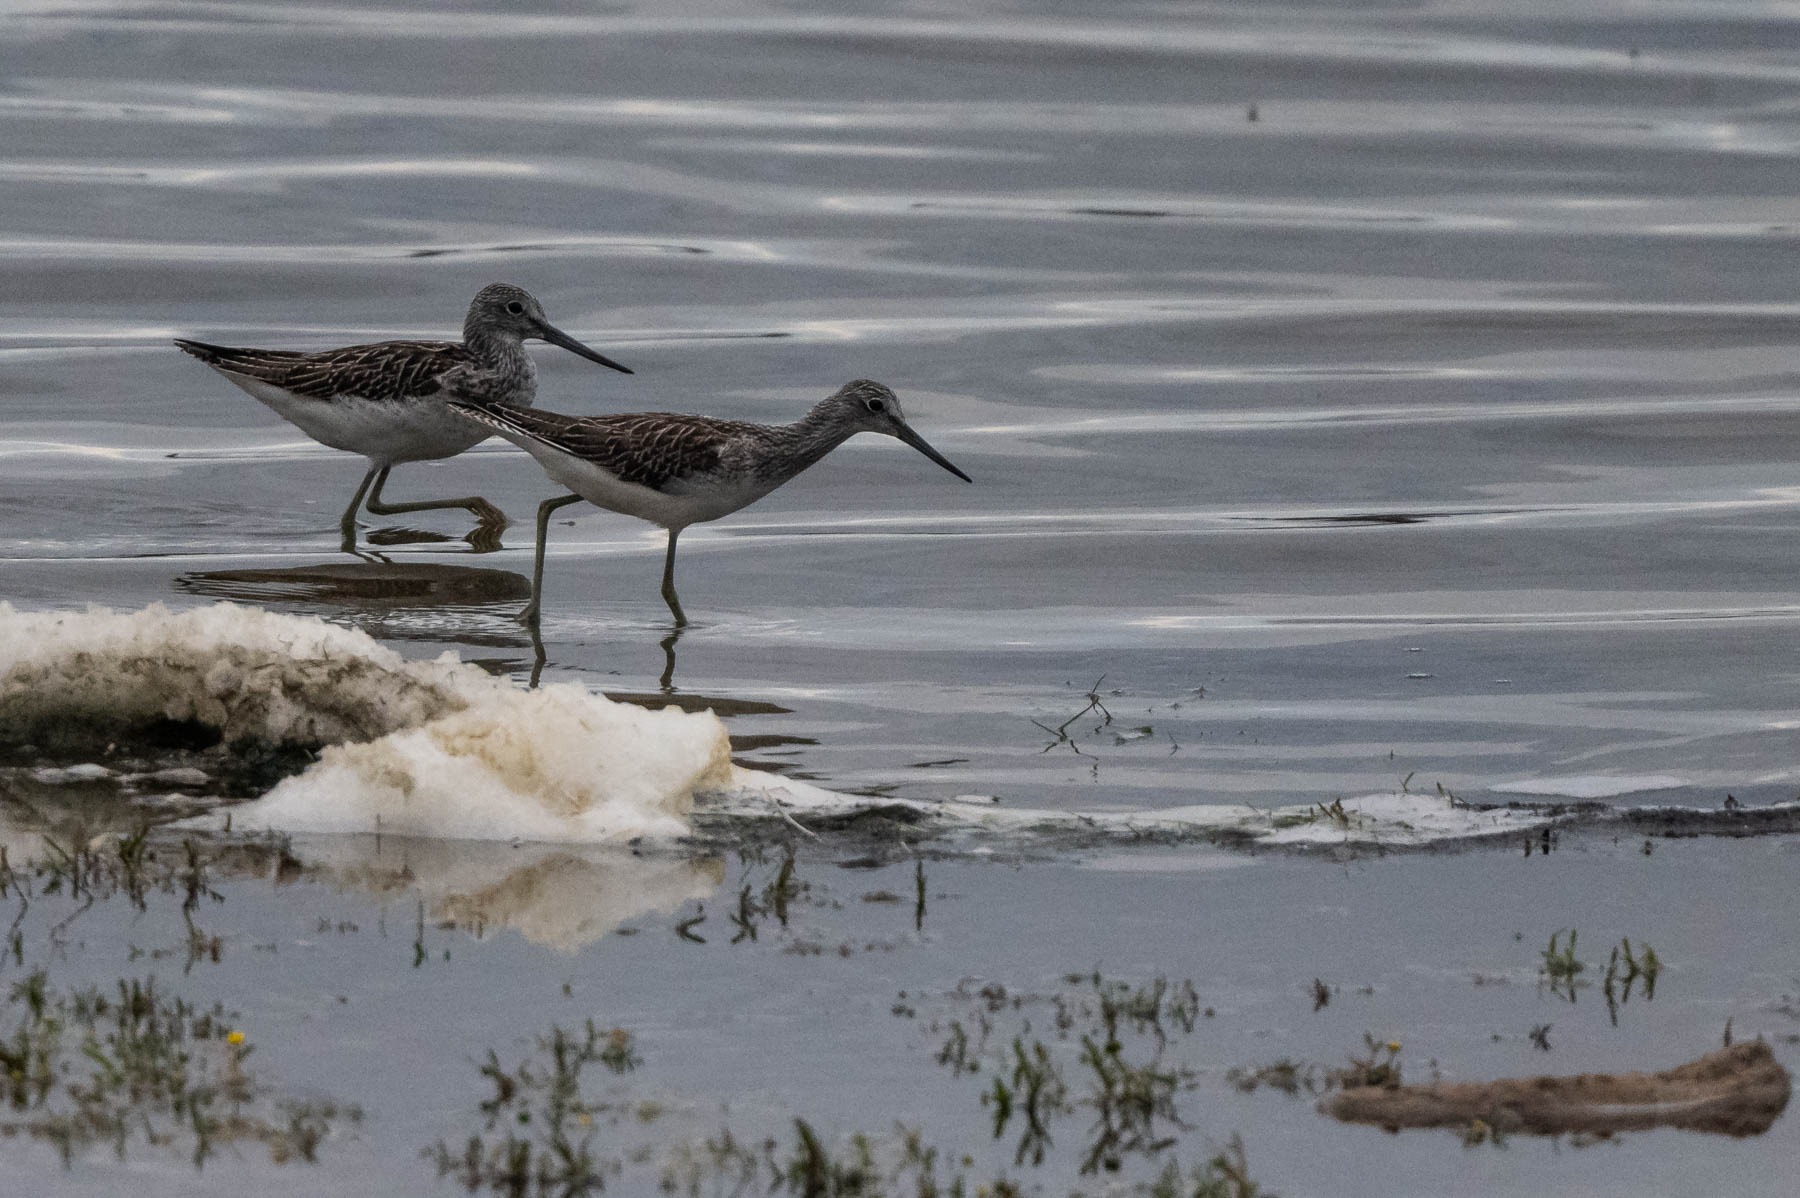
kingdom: Animalia
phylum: Chordata
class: Aves
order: Charadriiformes
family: Scolopacidae
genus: Tringa
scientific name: Tringa nebularia
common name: Hvidklire
